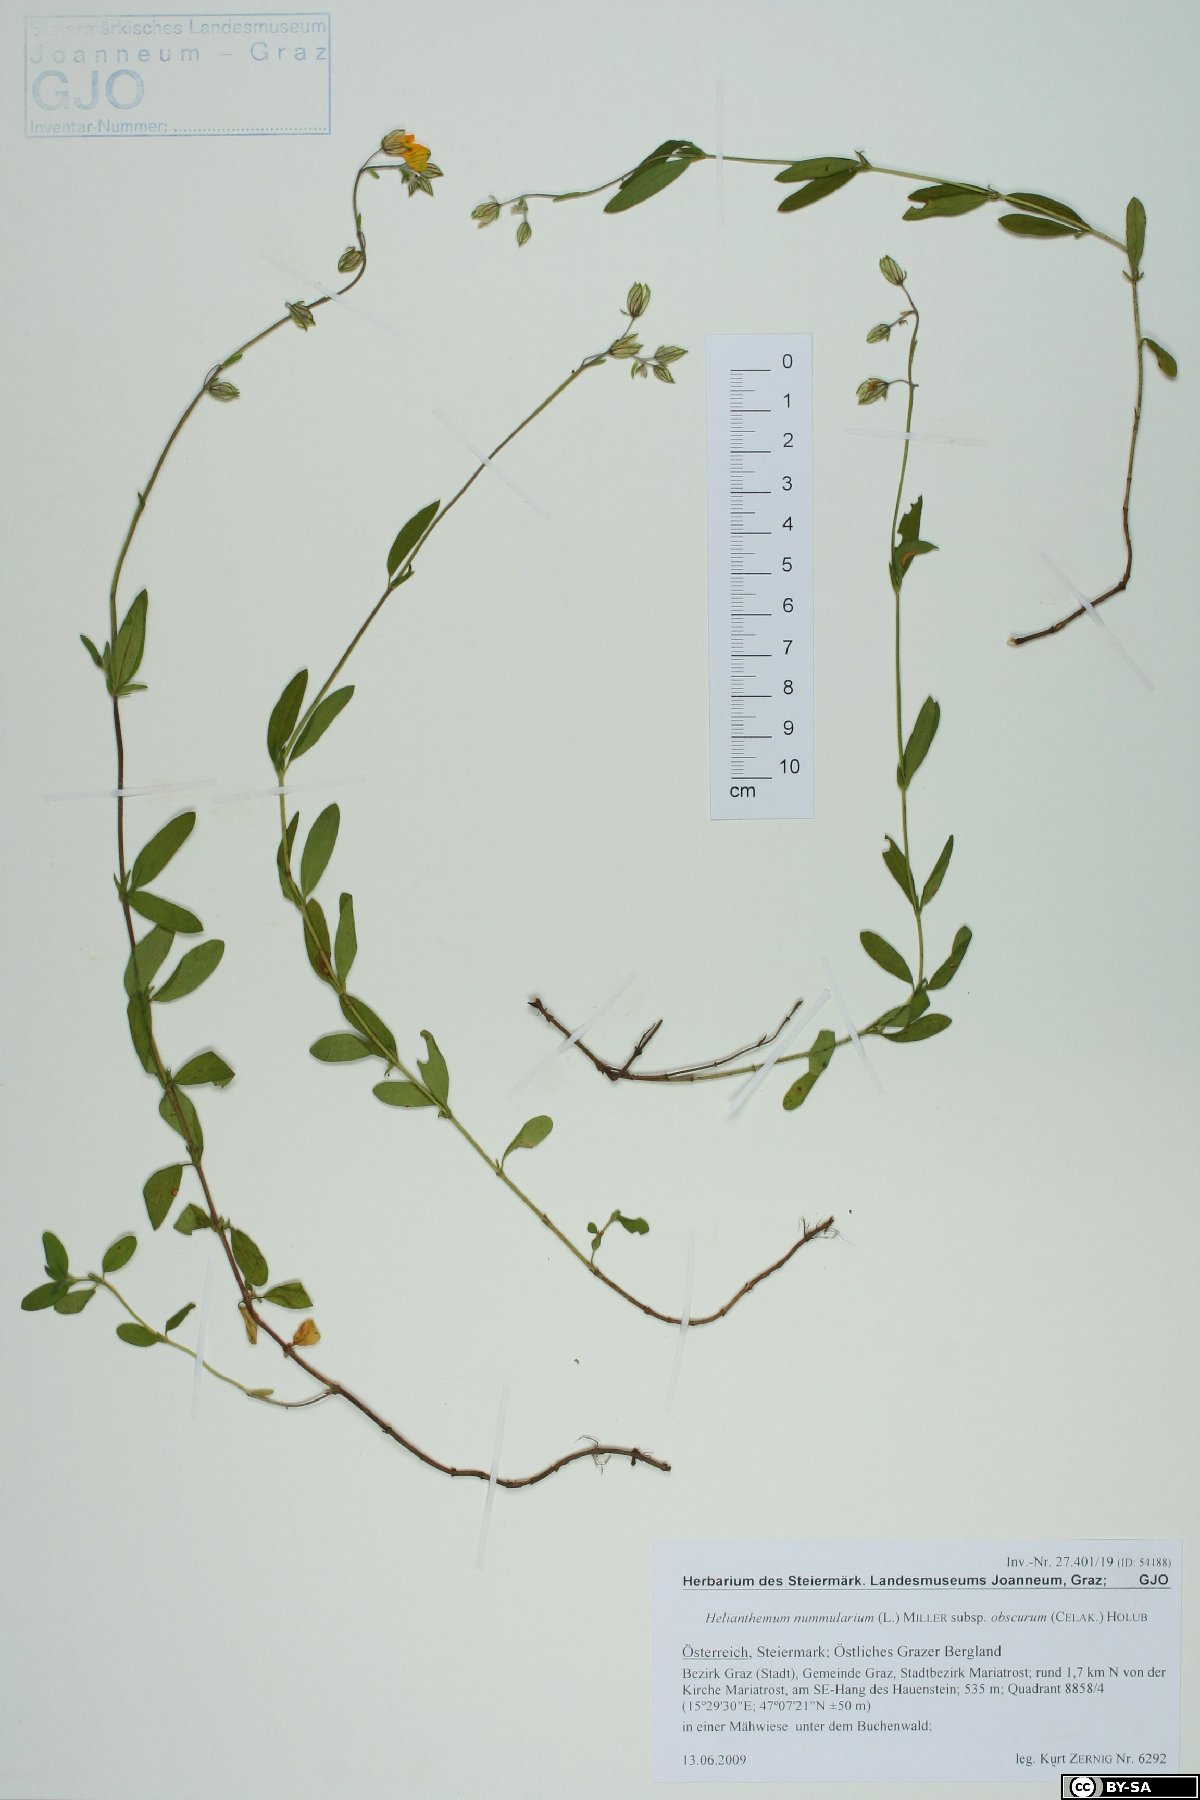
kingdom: Plantae
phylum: Tracheophyta
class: Magnoliopsida
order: Malvales
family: Cistaceae
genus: Helianthemum
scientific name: Helianthemum nummularium
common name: Common rock-rose
